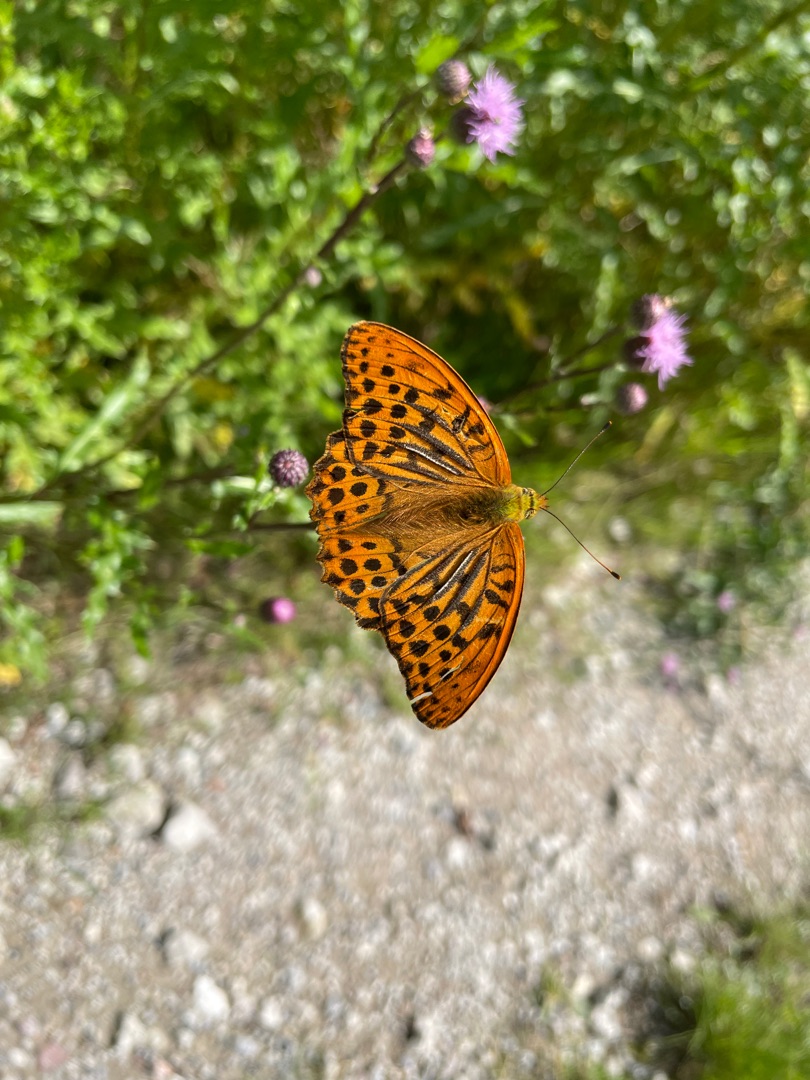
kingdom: Animalia
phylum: Arthropoda
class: Insecta
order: Lepidoptera
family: Nymphalidae
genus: Argynnis
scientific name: Argynnis paphia
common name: Kejserkåbe
